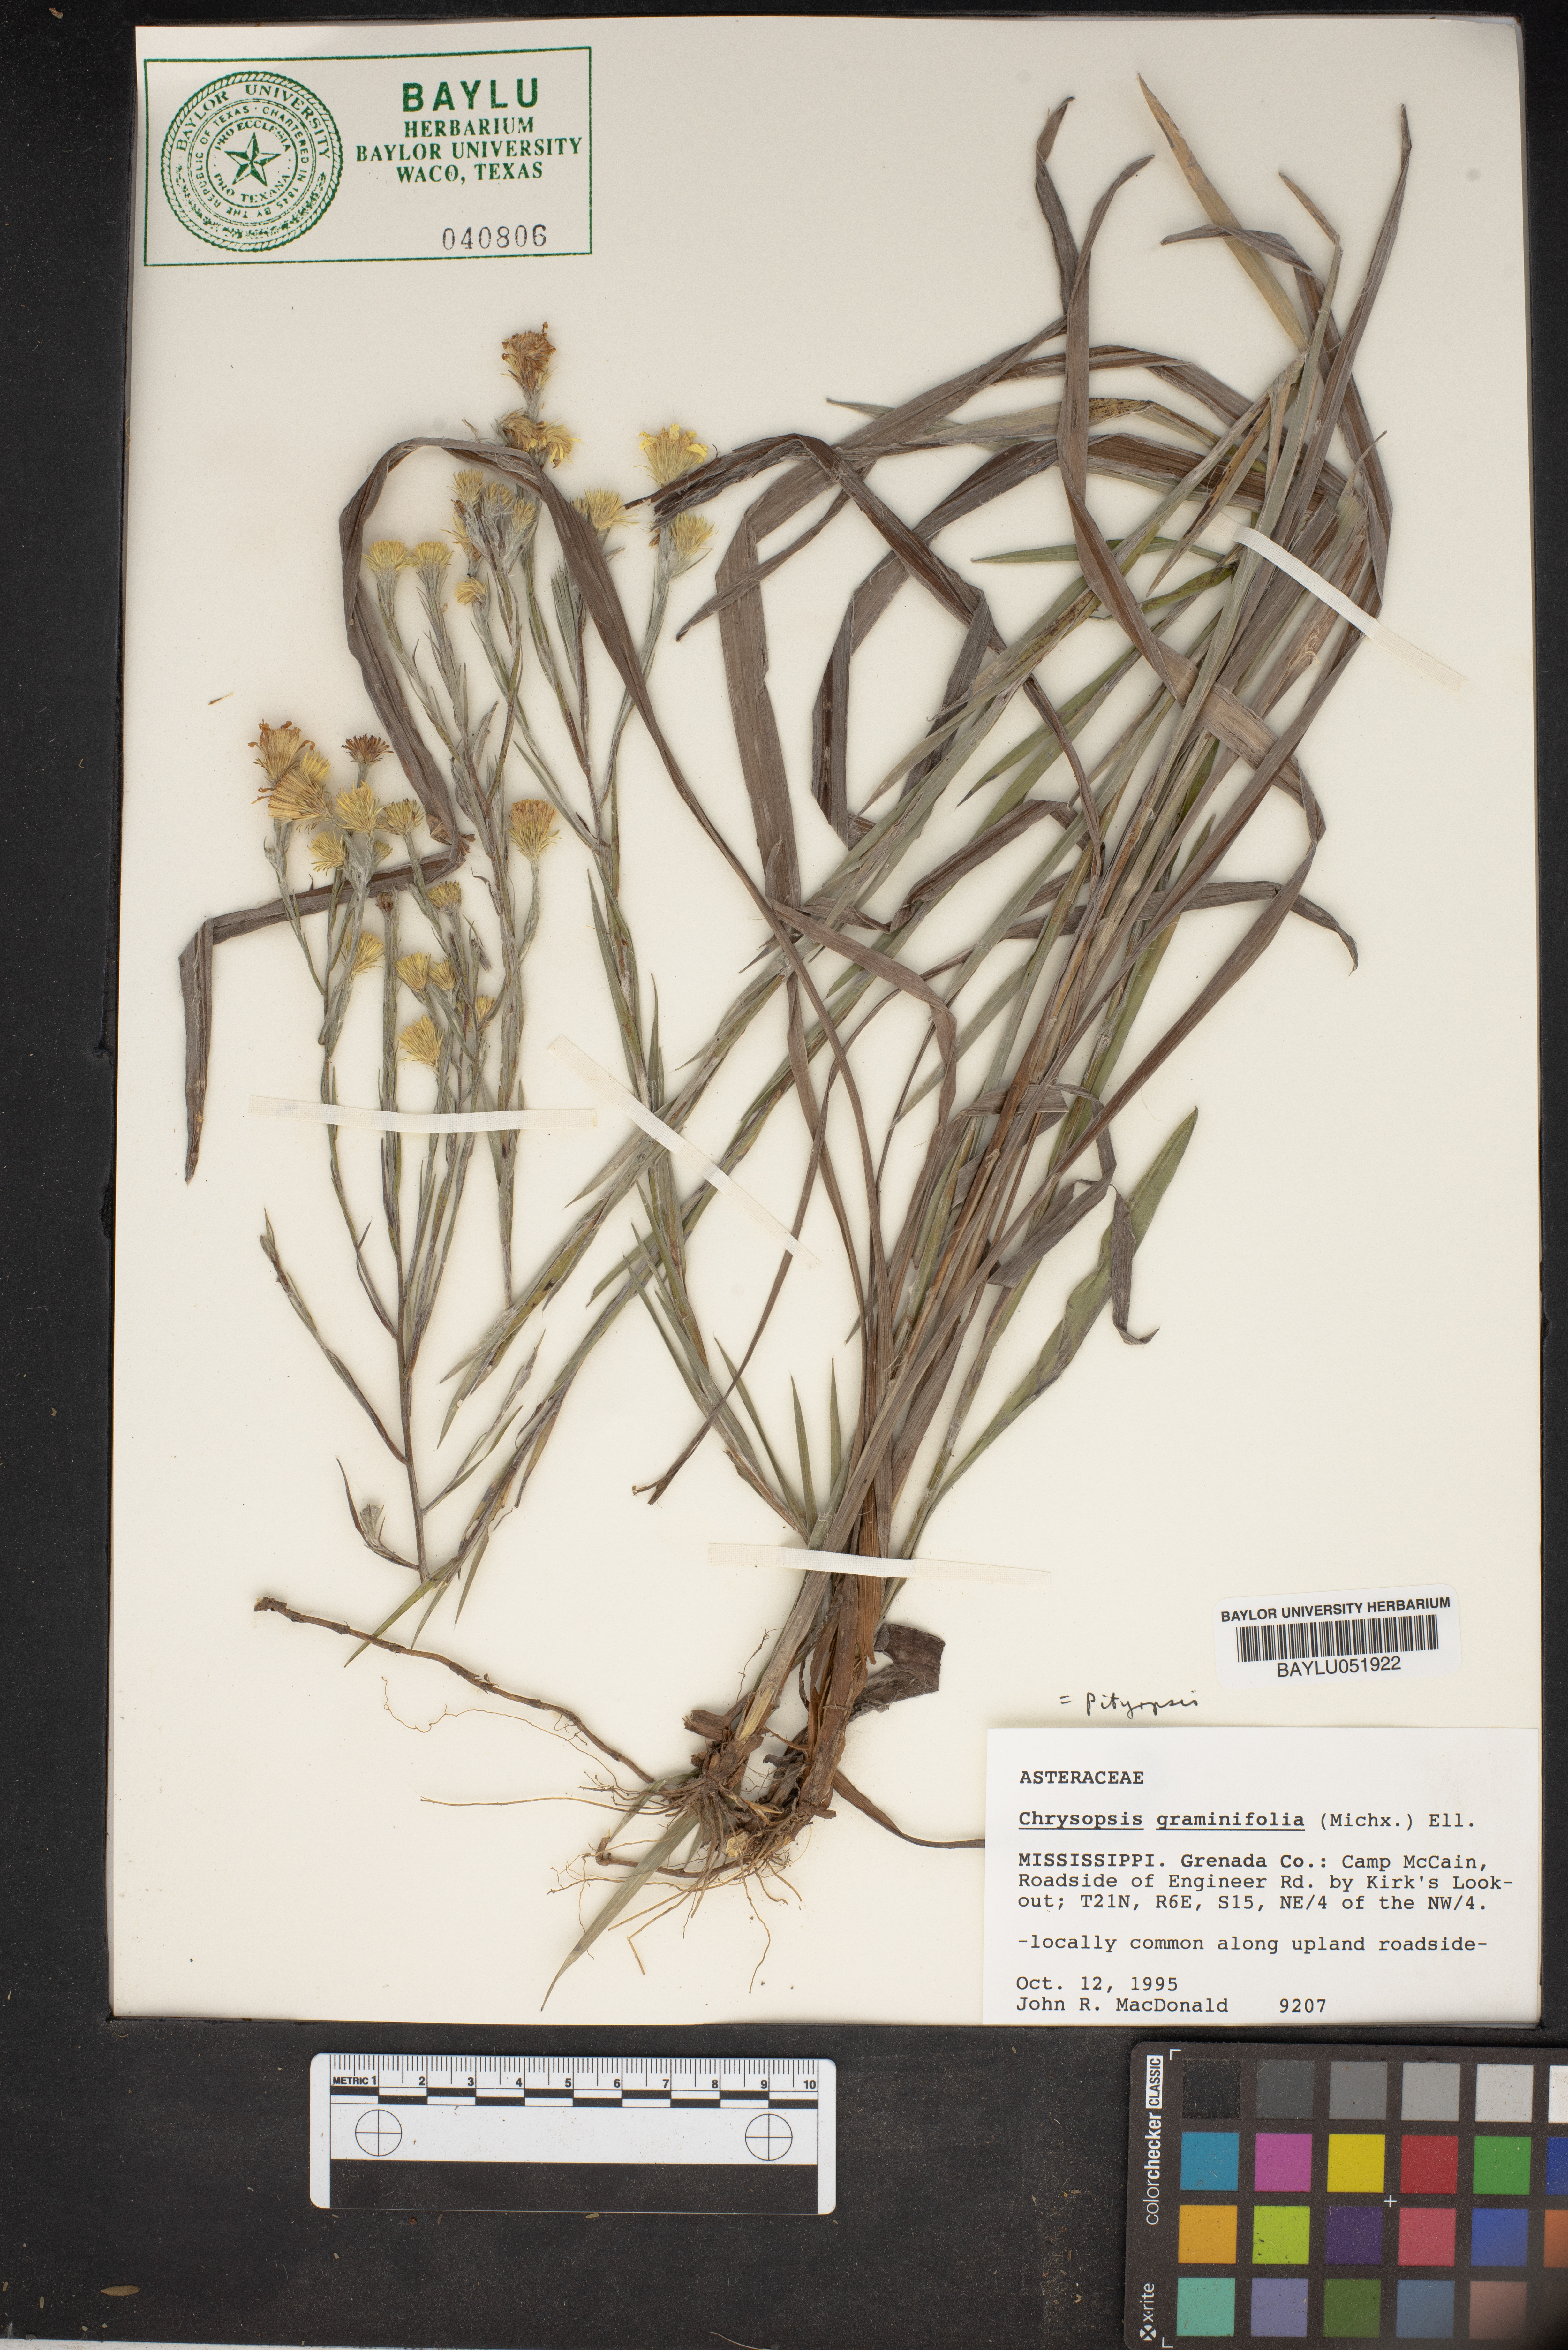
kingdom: Plantae
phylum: Tracheophyta
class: Magnoliopsida
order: Asterales
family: Asteraceae
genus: Pityopsis
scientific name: Pityopsis graminifolia
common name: Grass-leaf golden-aster
